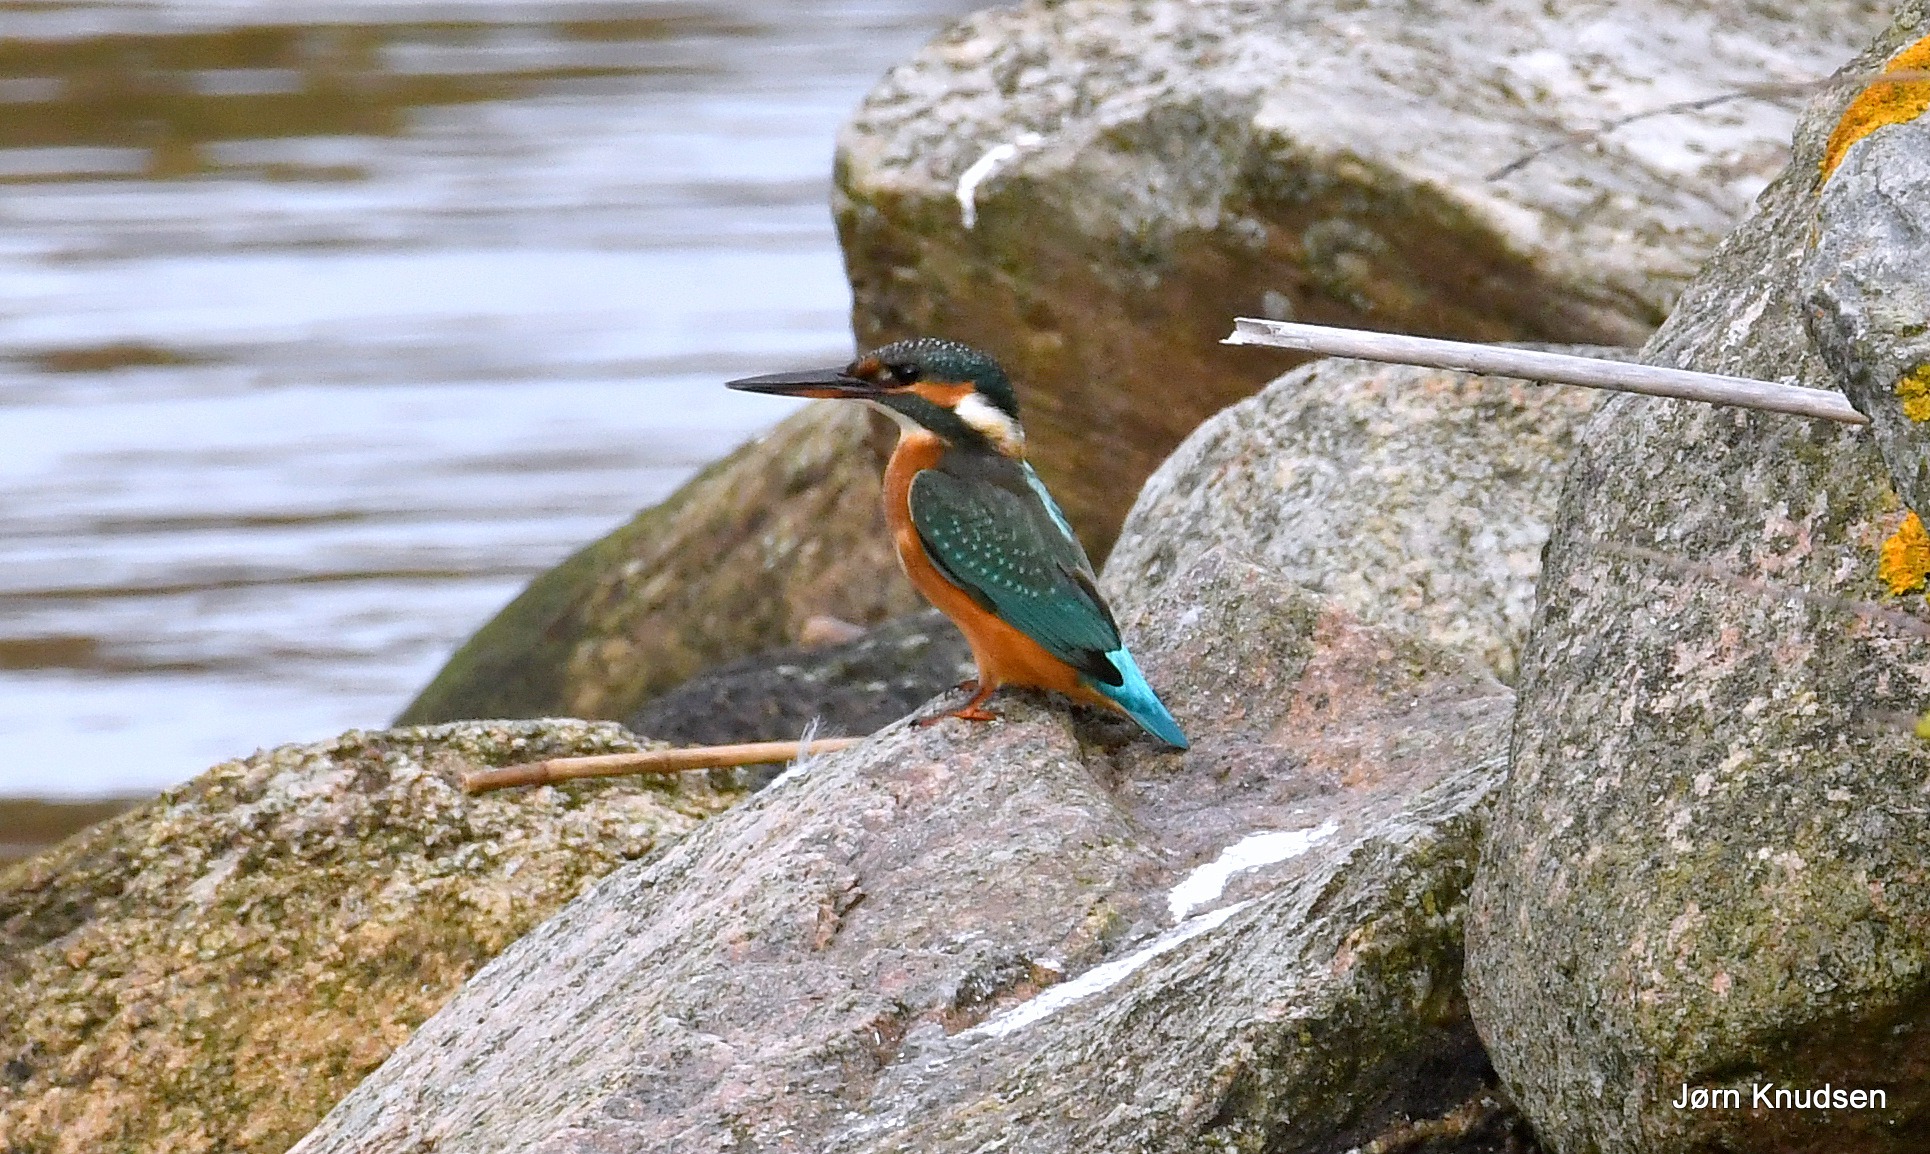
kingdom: Animalia
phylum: Chordata
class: Aves
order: Coraciiformes
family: Alcedinidae
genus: Alcedo
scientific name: Alcedo atthis
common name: Isfugl
